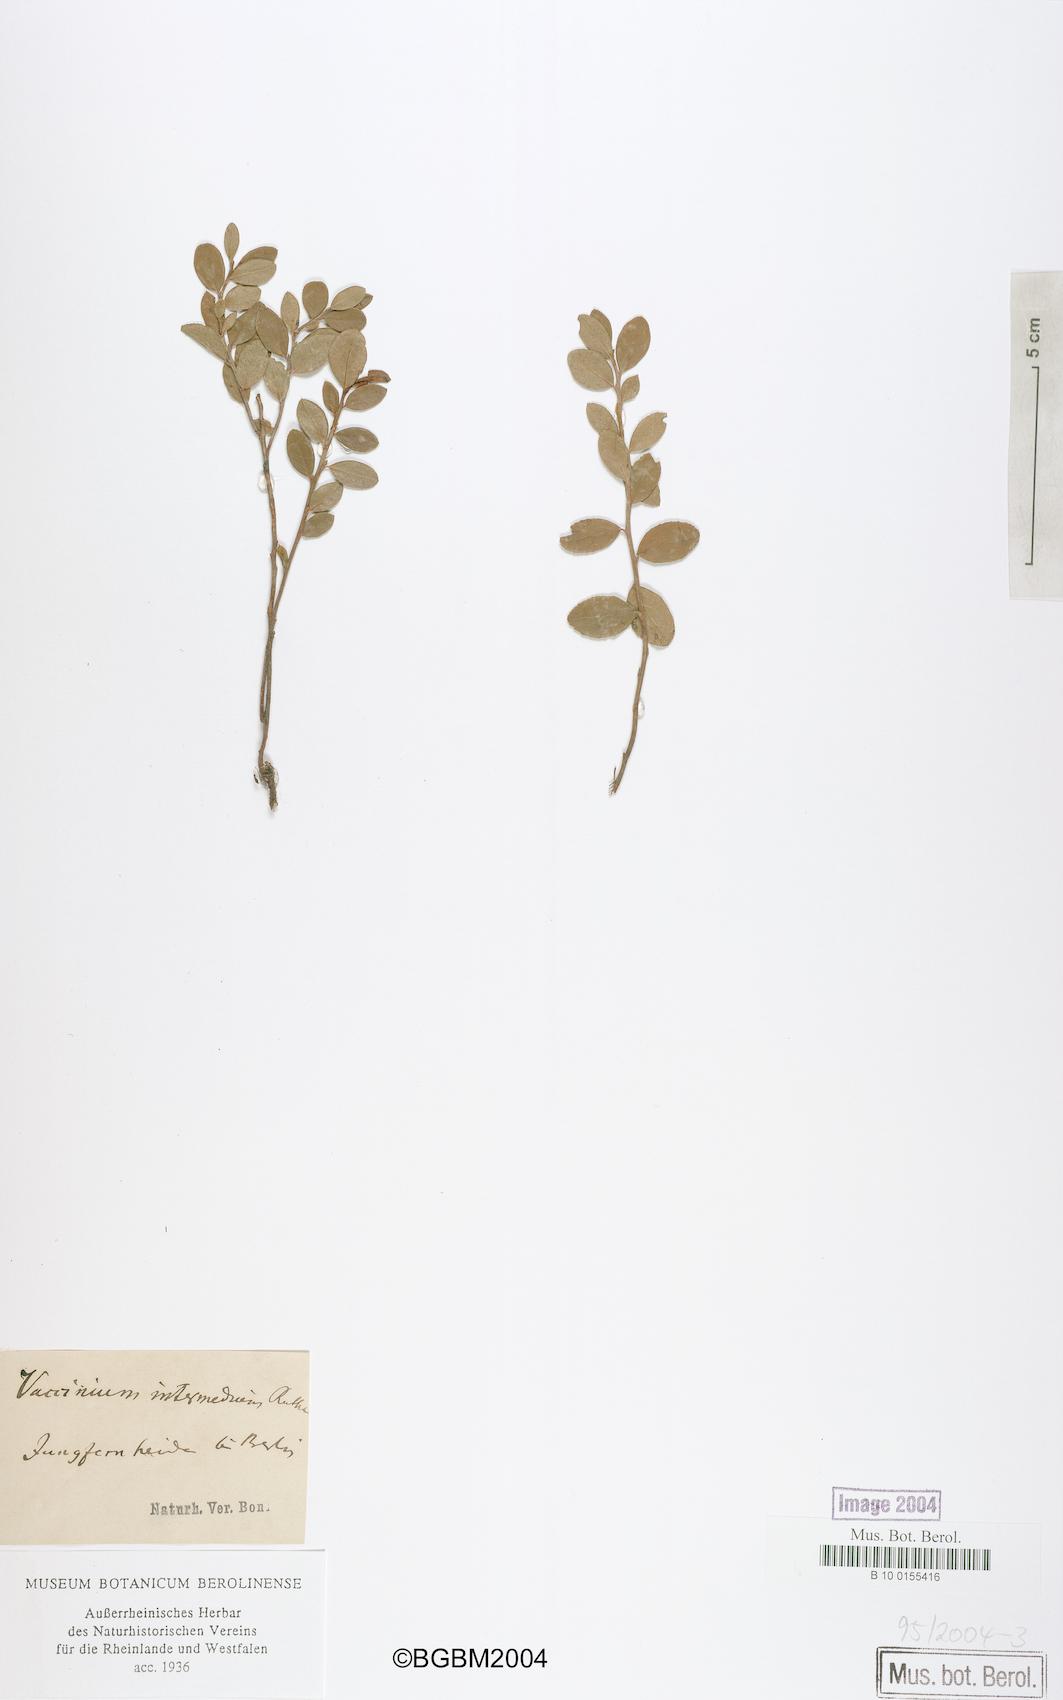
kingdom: Plantae
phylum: Tracheophyta
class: Magnoliopsida
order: Ericales
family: Ericaceae
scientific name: Ericaceae
